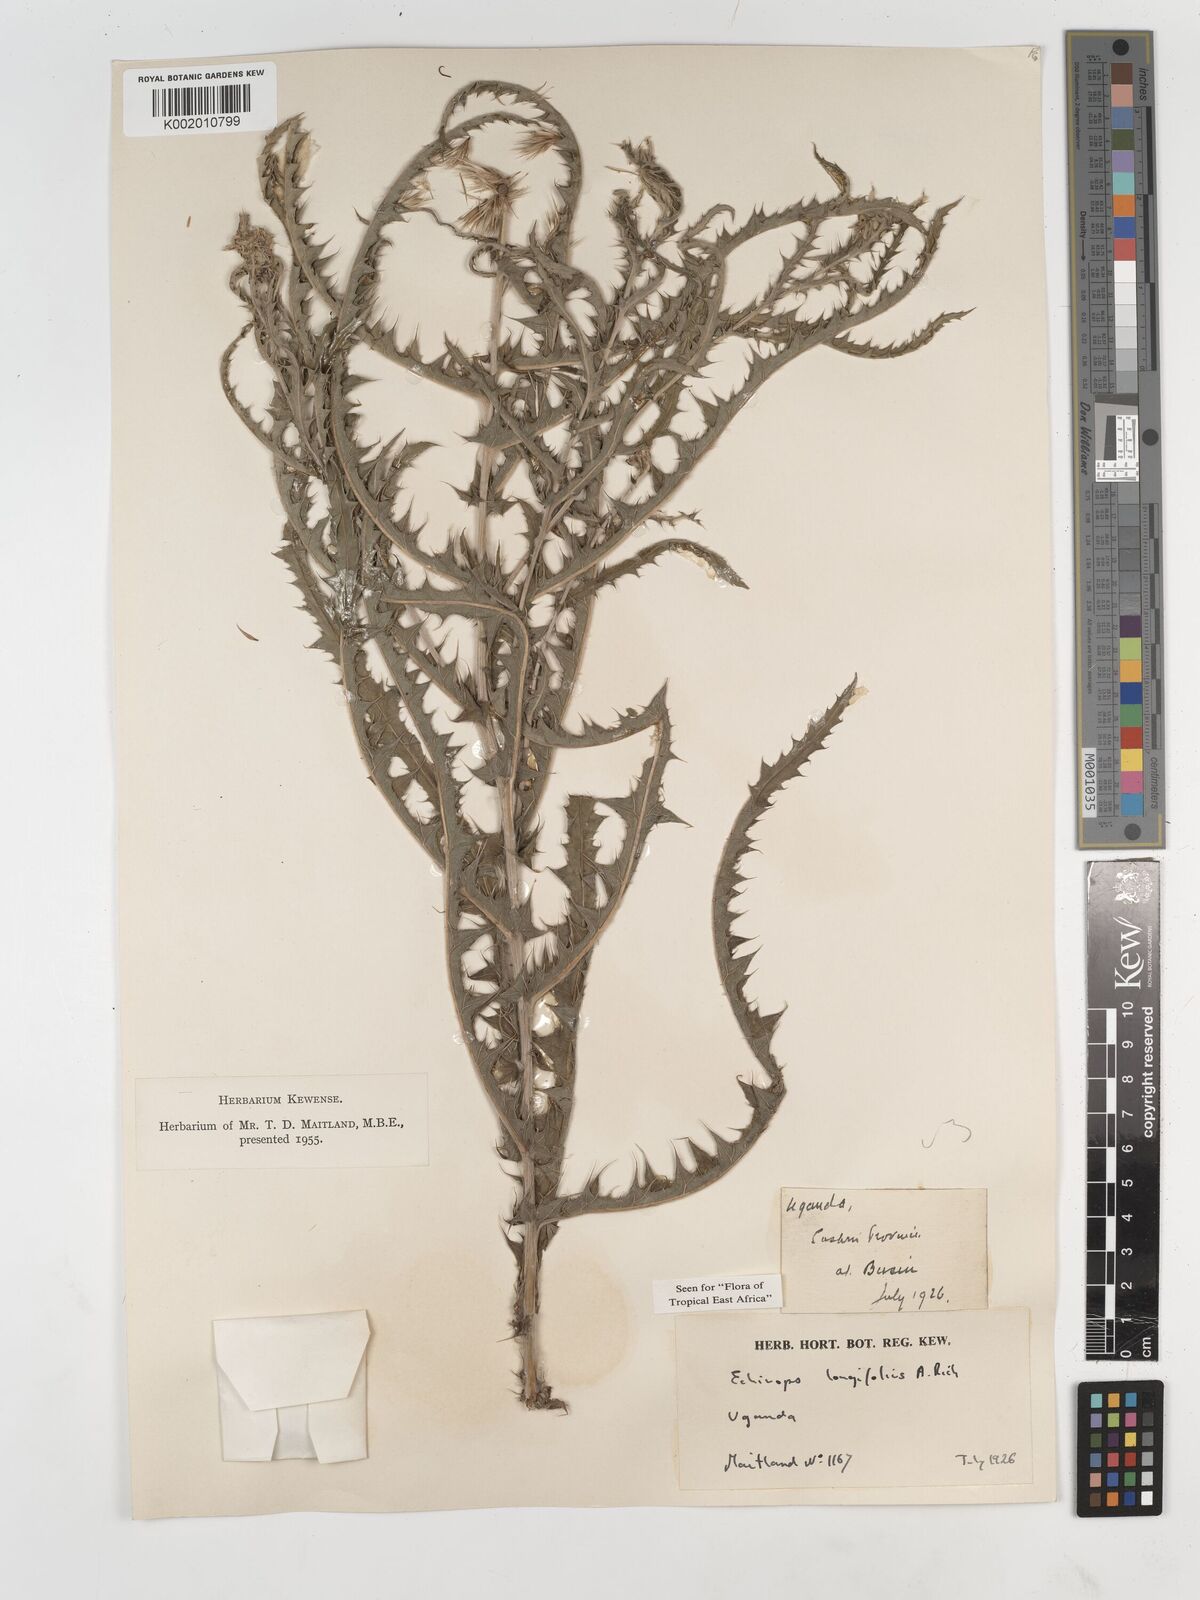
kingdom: Plantae
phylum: Tracheophyta
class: Magnoliopsida
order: Asterales
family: Asteraceae
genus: Echinops
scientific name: Echinops longifolius
